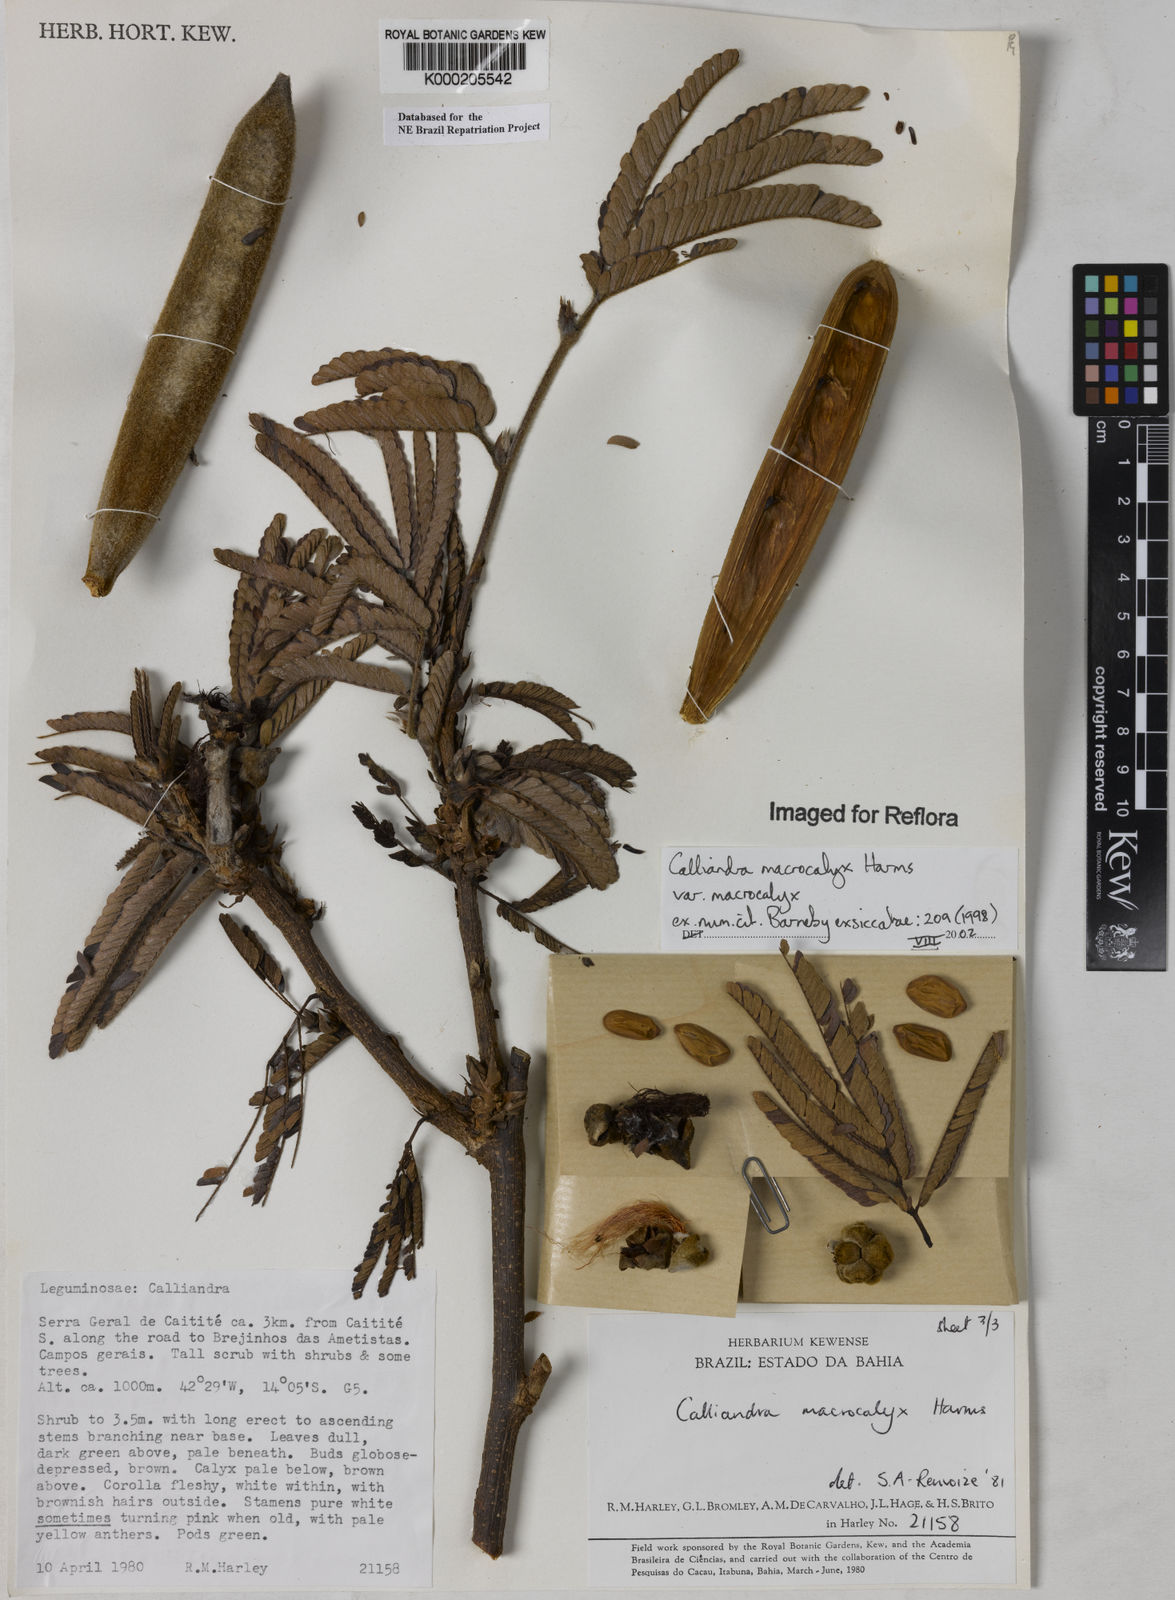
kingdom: Plantae
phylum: Tracheophyta
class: Magnoliopsida
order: Fabales
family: Fabaceae
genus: Calliandra
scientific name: Calliandra macrocalyx
